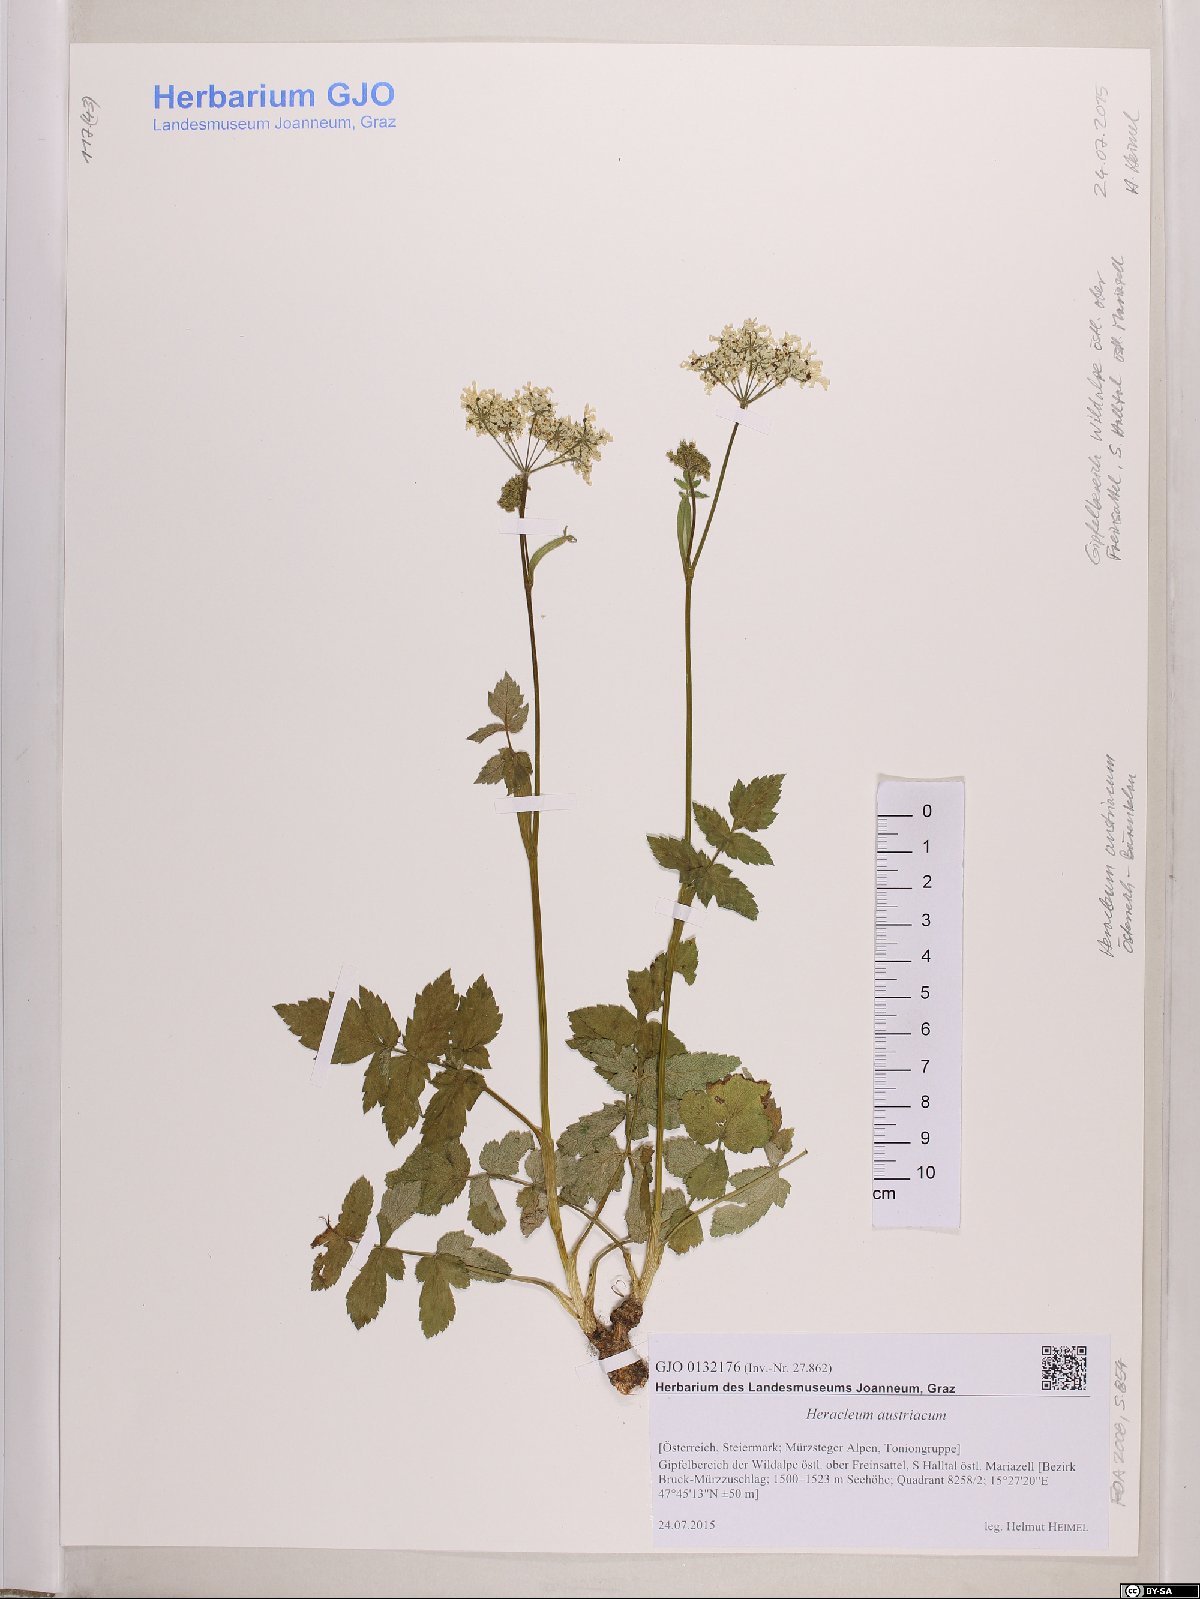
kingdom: Plantae
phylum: Tracheophyta
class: Magnoliopsida
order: Apiales
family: Apiaceae
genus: Heracleum
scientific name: Heracleum austriacum
